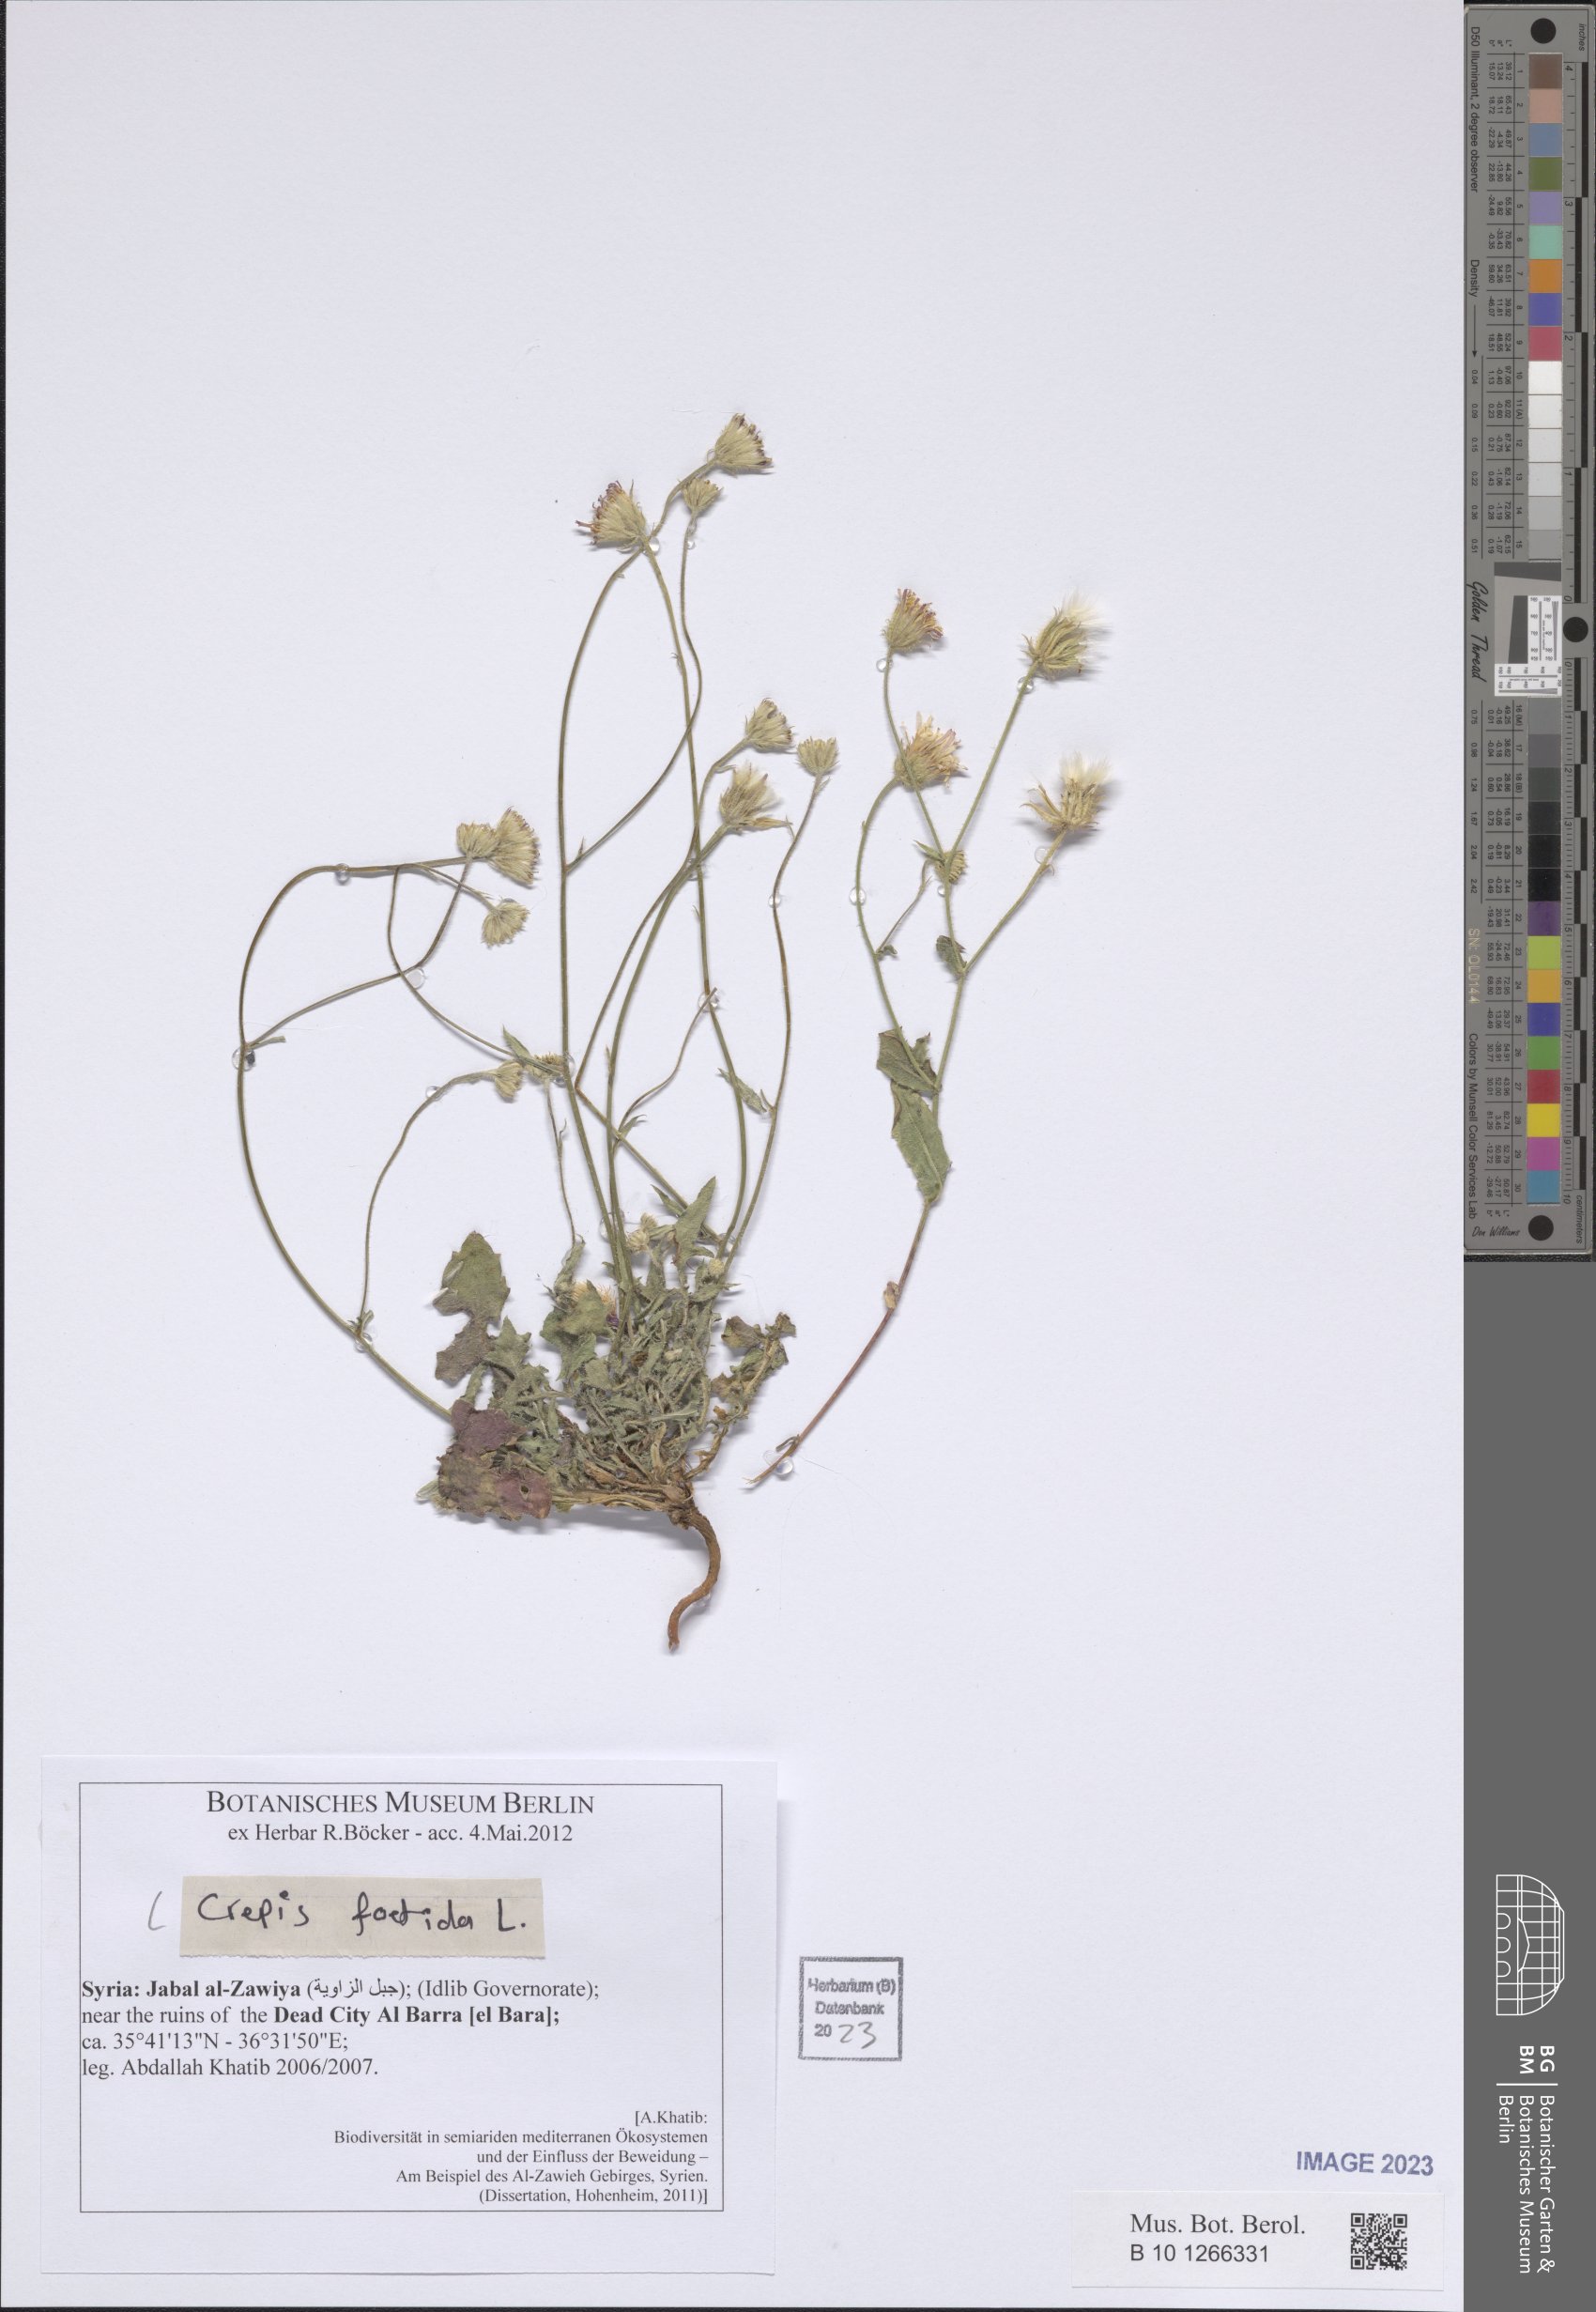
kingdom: Plantae
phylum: Tracheophyta
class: Magnoliopsida
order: Asterales
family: Asteraceae
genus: Crepis
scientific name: Crepis foetida
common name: Stinking hawk's-beard
